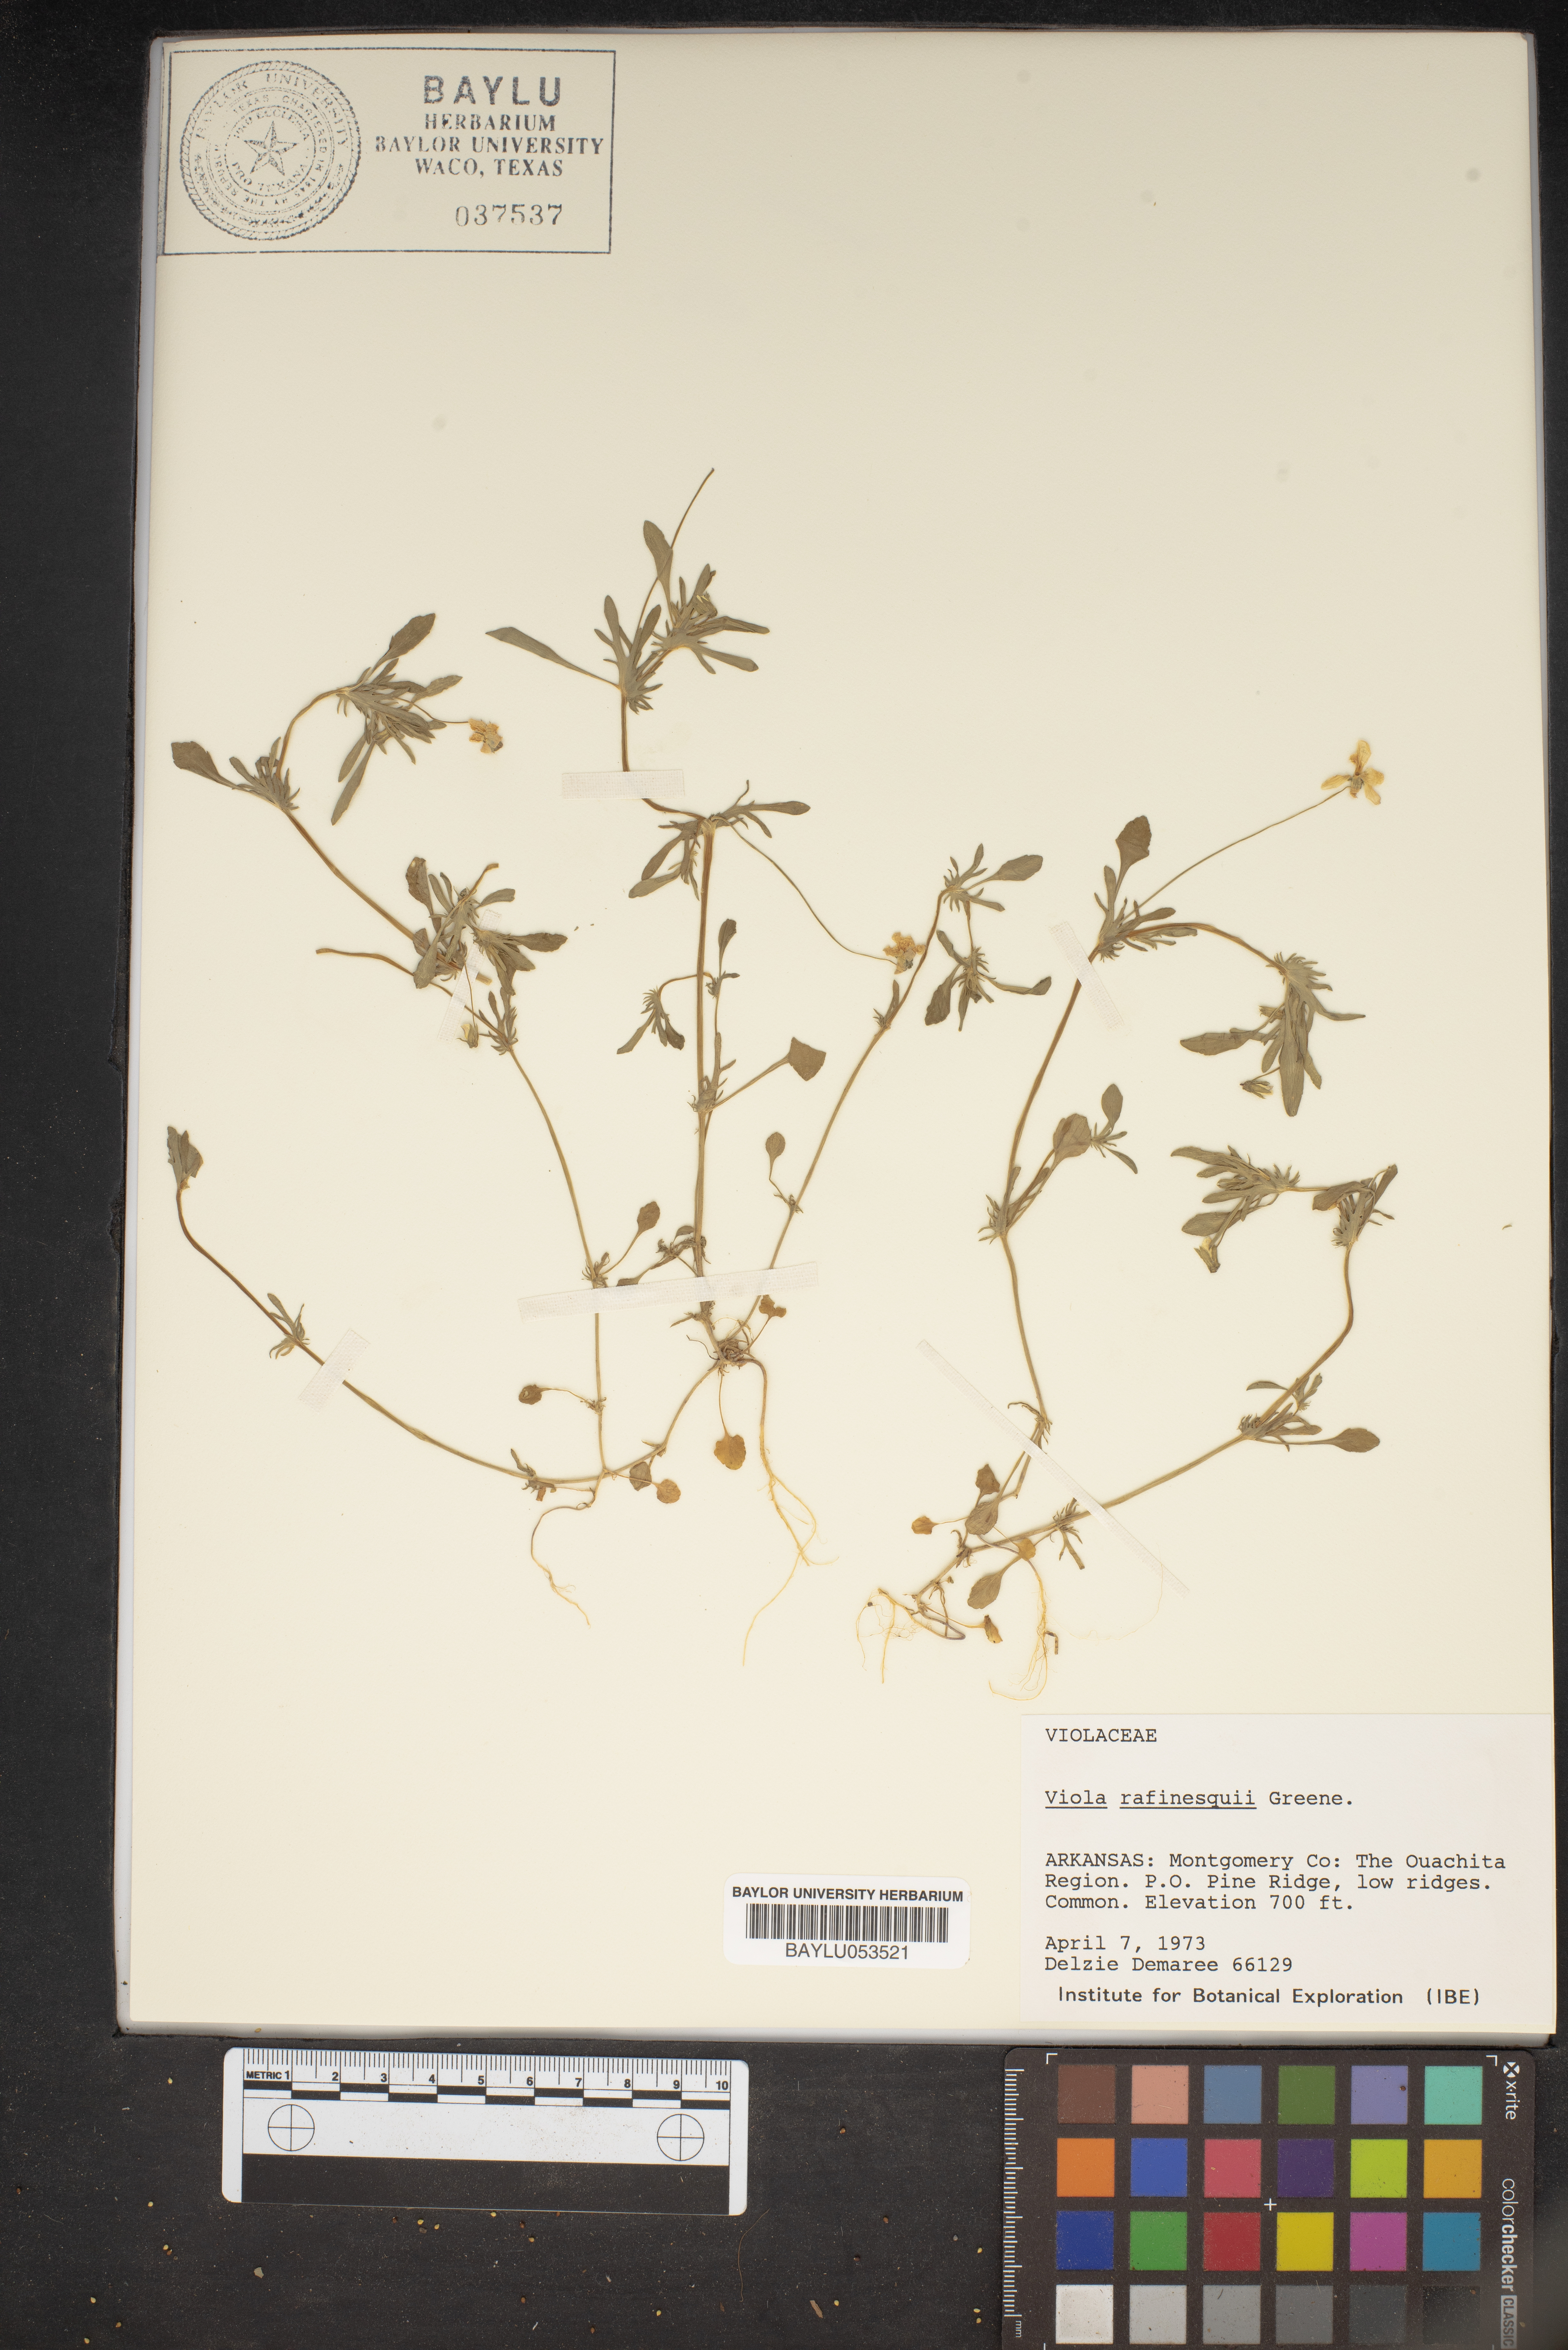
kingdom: Plantae
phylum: Tracheophyta
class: Magnoliopsida
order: Malpighiales
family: Violaceae
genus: Viola
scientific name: Viola rafinesquei
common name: American field pansy
